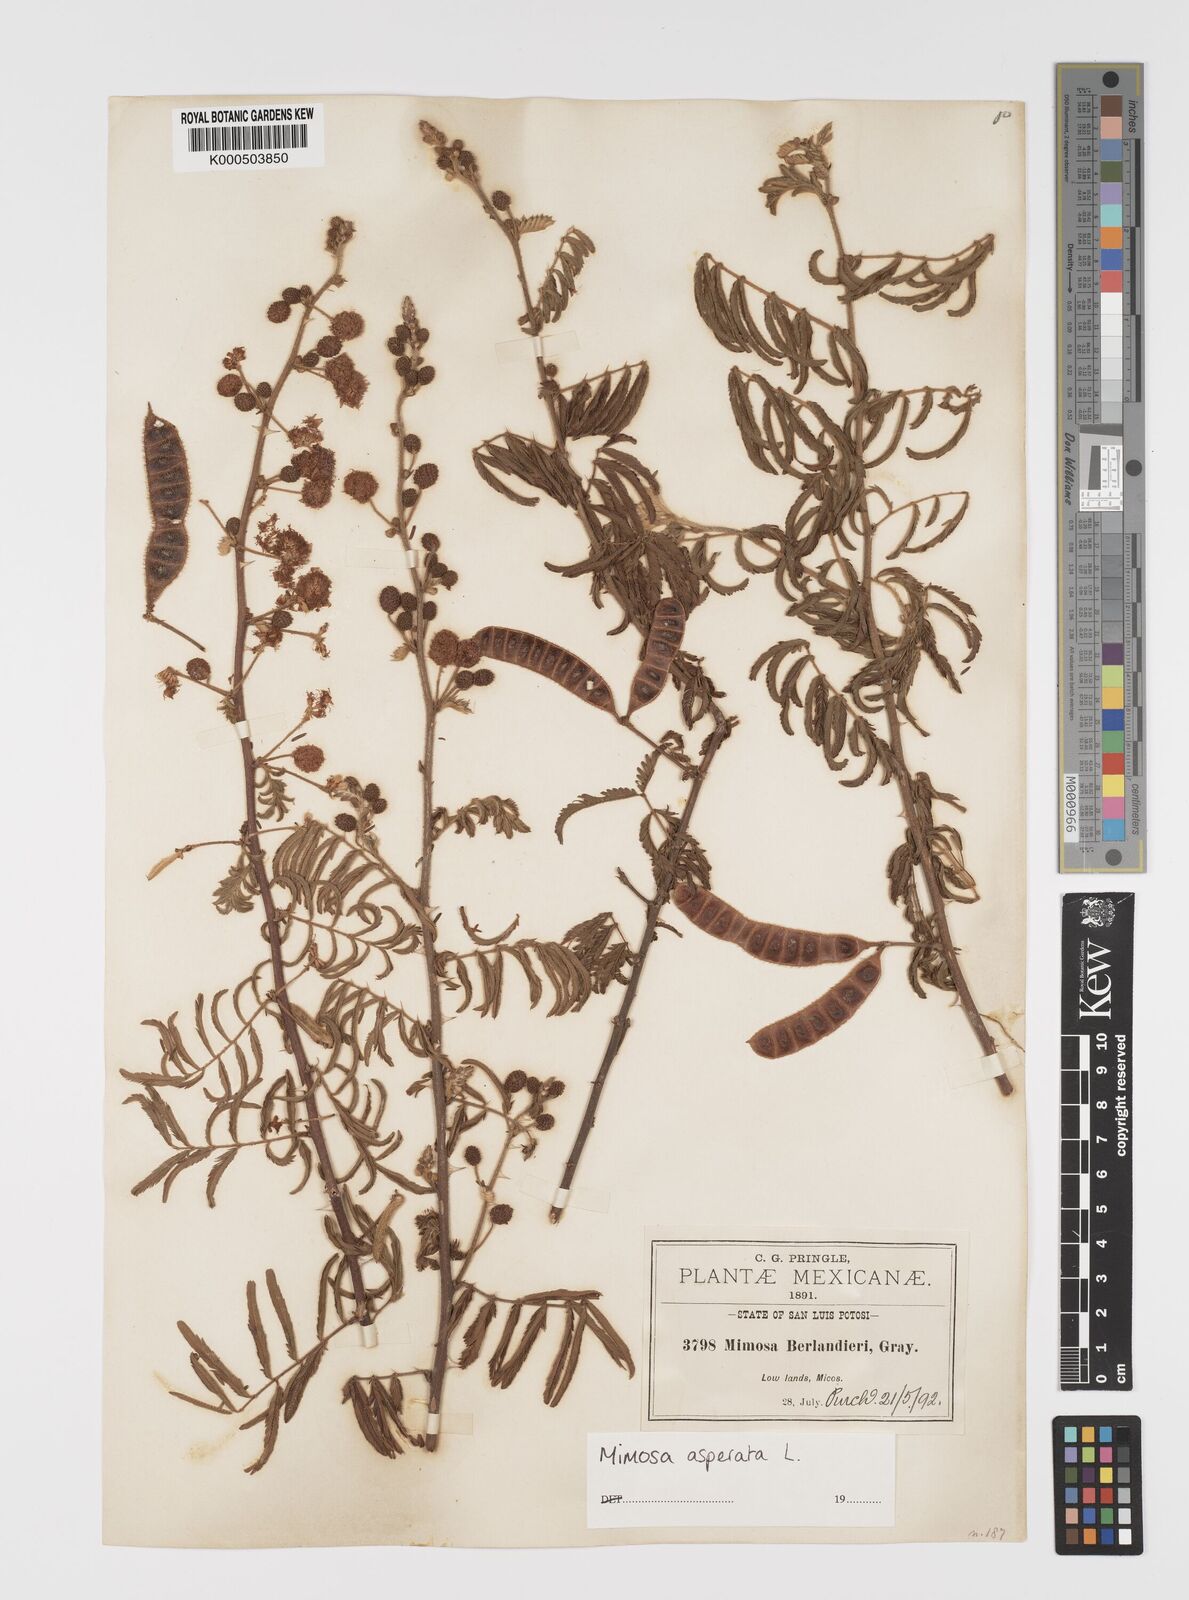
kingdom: Plantae
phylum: Tracheophyta
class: Magnoliopsida
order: Fabales
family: Fabaceae
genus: Mimosa
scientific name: Mimosa pigra
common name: Black mimosa
